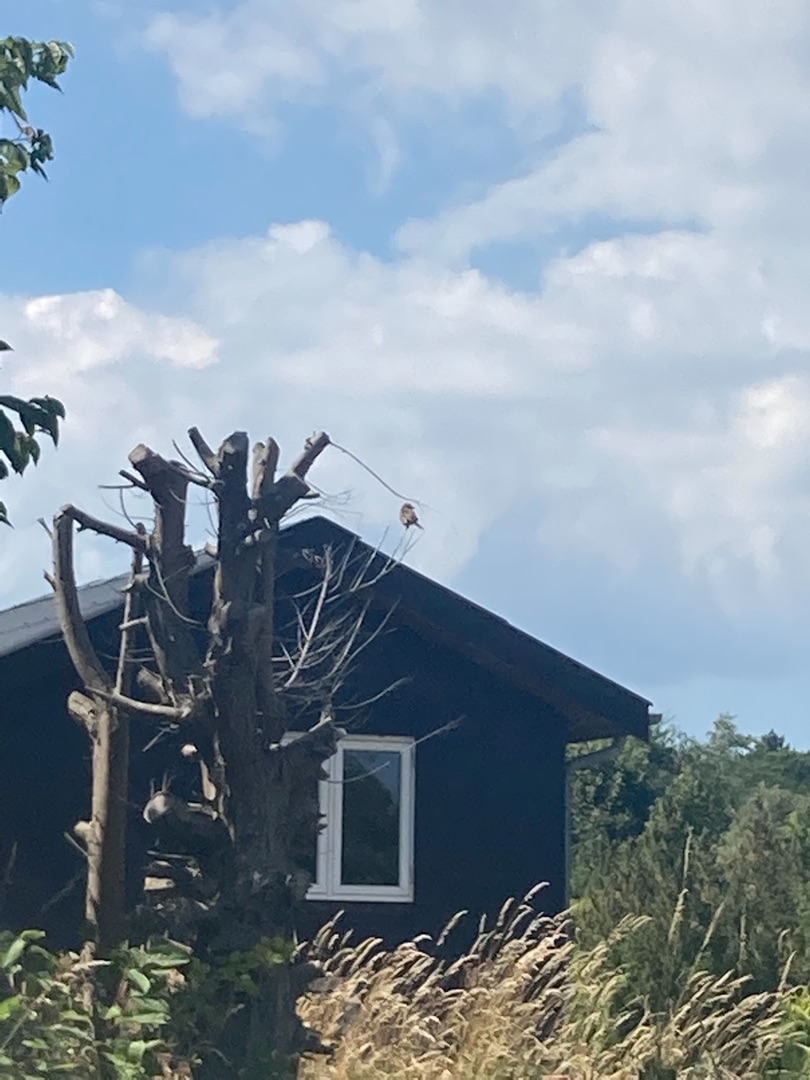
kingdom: Animalia
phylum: Chordata
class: Aves
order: Passeriformes
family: Laniidae
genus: Lanius
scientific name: Lanius collurio
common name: Rødrygget tornskade
